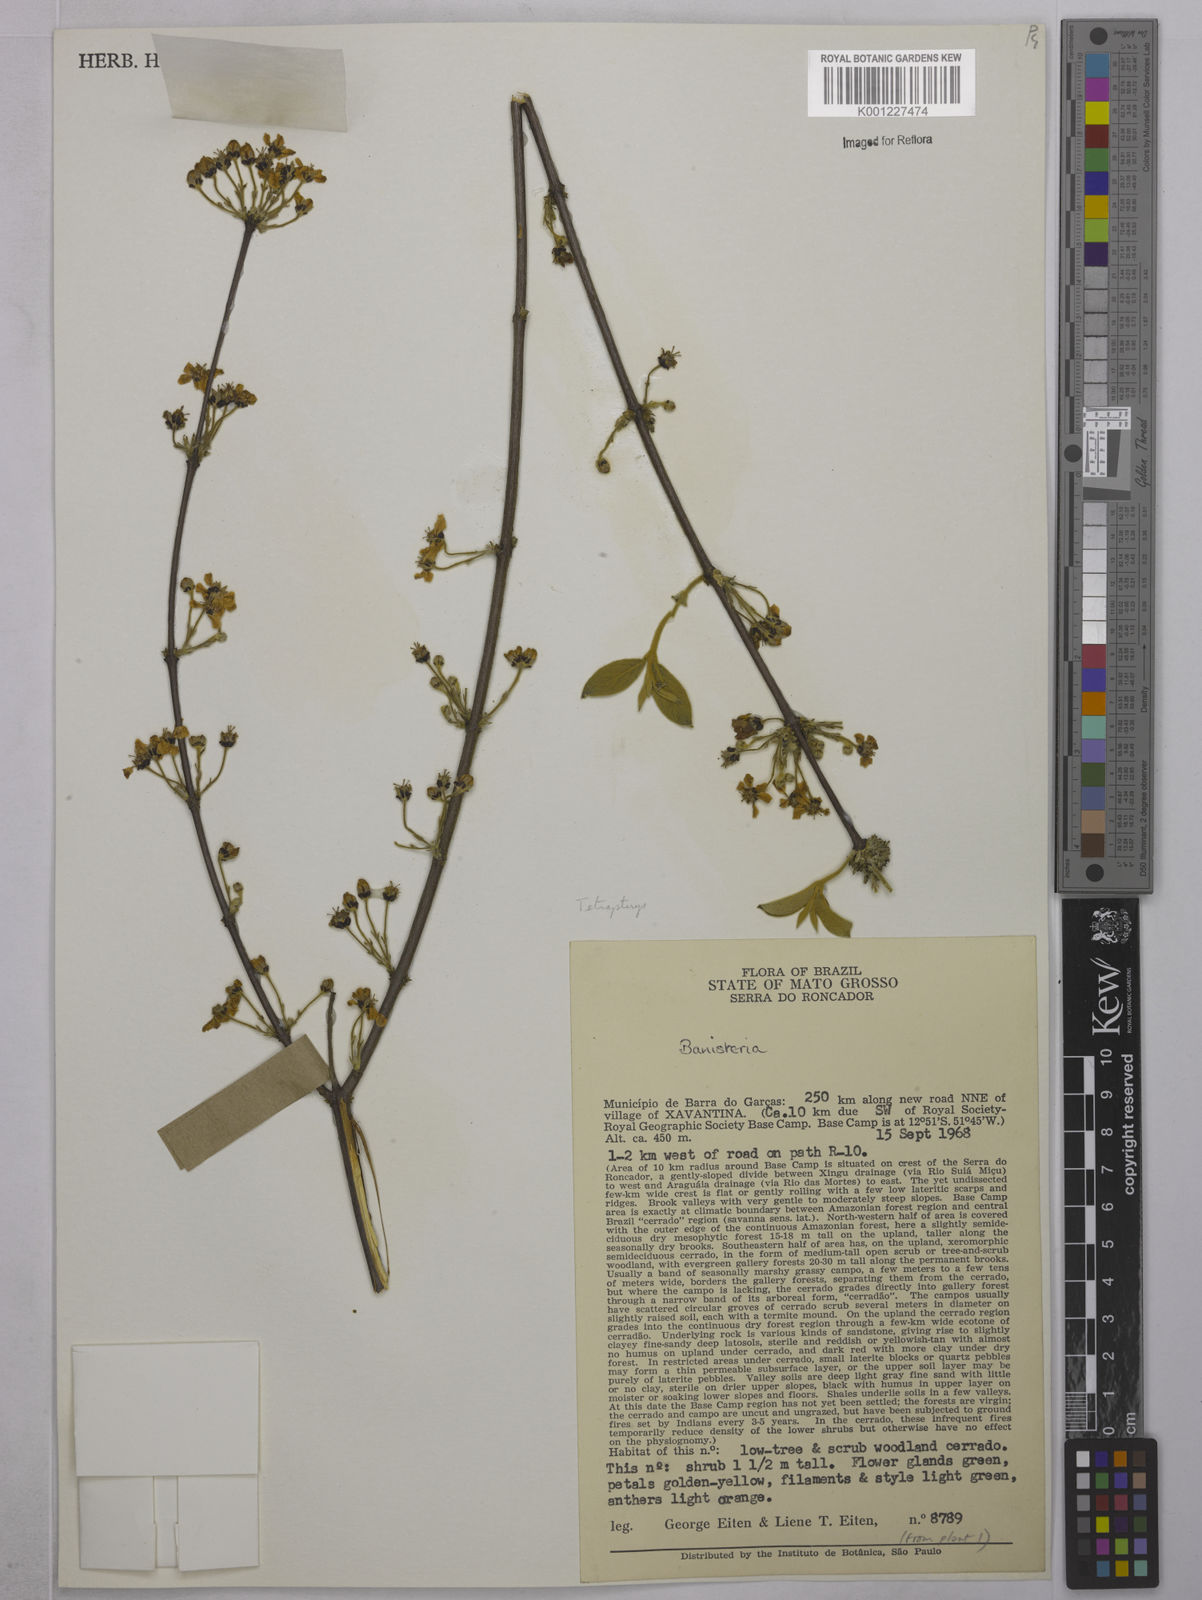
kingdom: Plantae
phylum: Tracheophyta
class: Magnoliopsida
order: Malpighiales
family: Malpighiaceae
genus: Tetrapterys
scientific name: Tetrapterys
